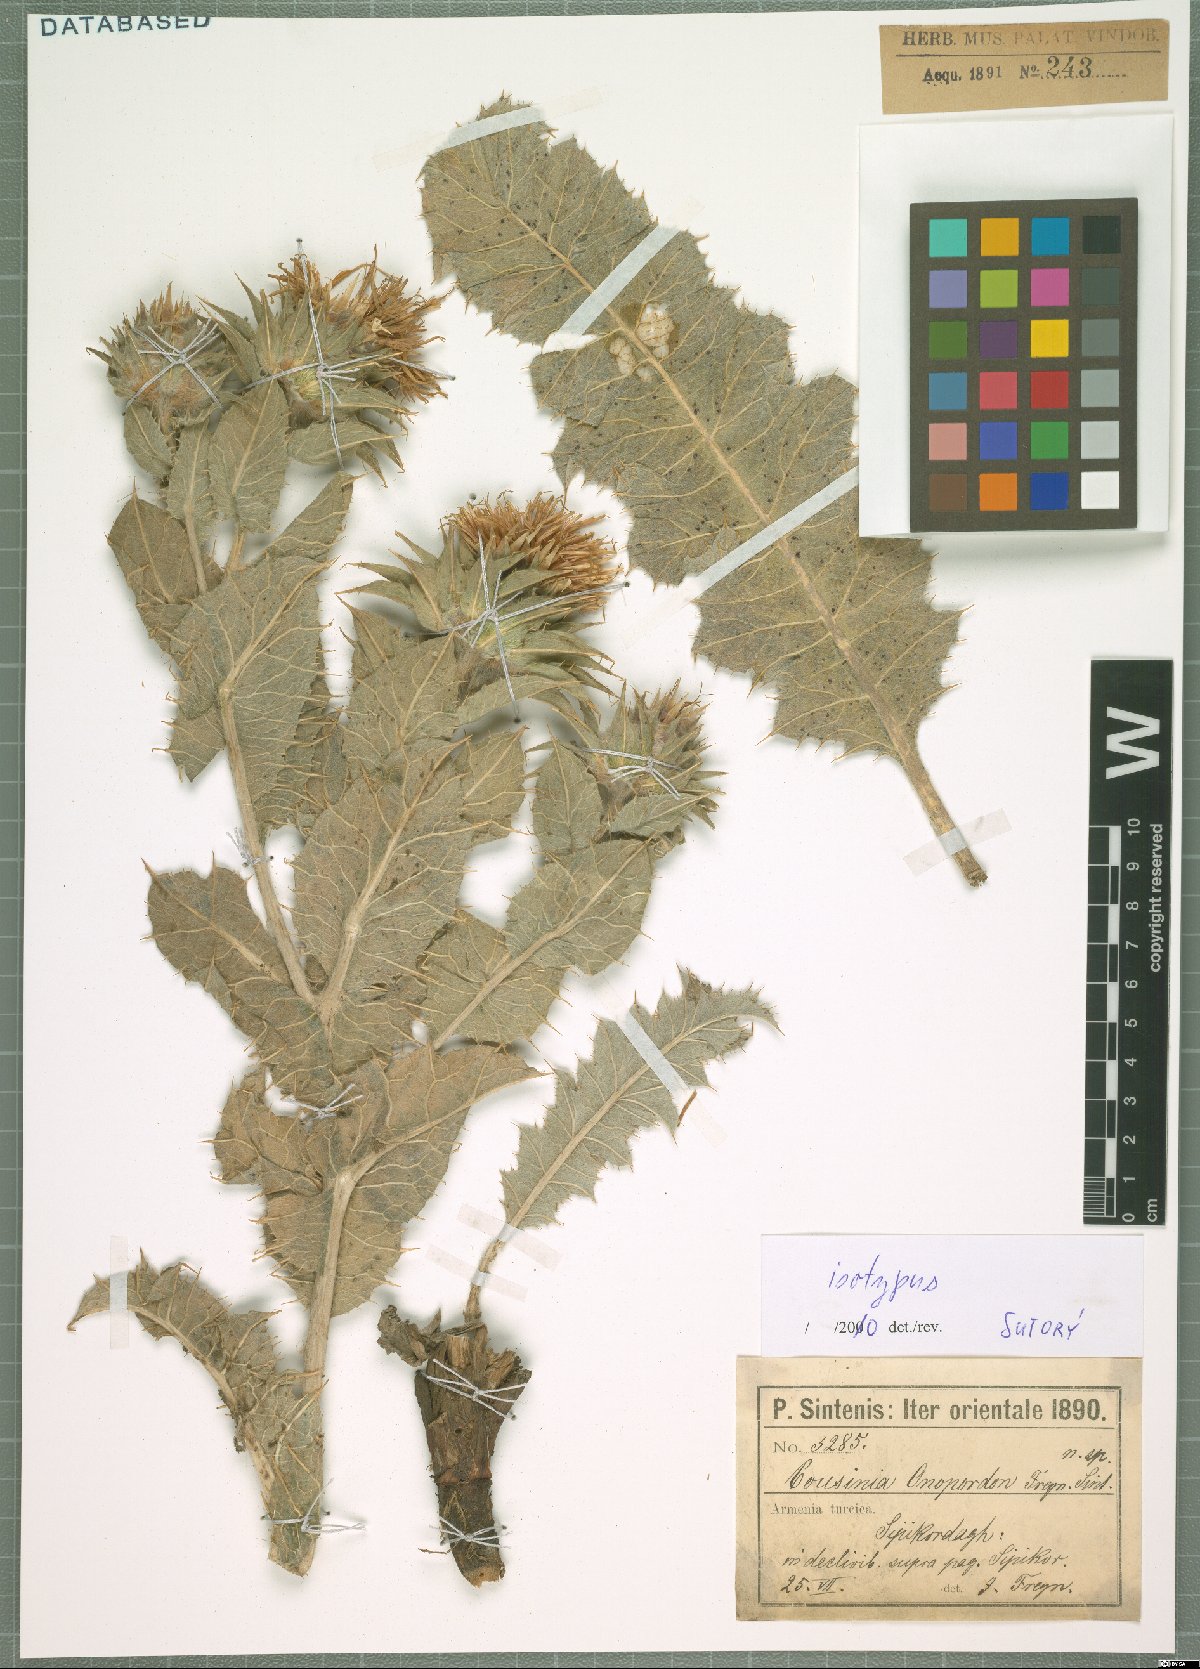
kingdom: Plantae
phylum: Tracheophyta
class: Magnoliopsida
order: Asterales
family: Asteraceae
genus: Cousinia
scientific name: Cousinia onopordon
